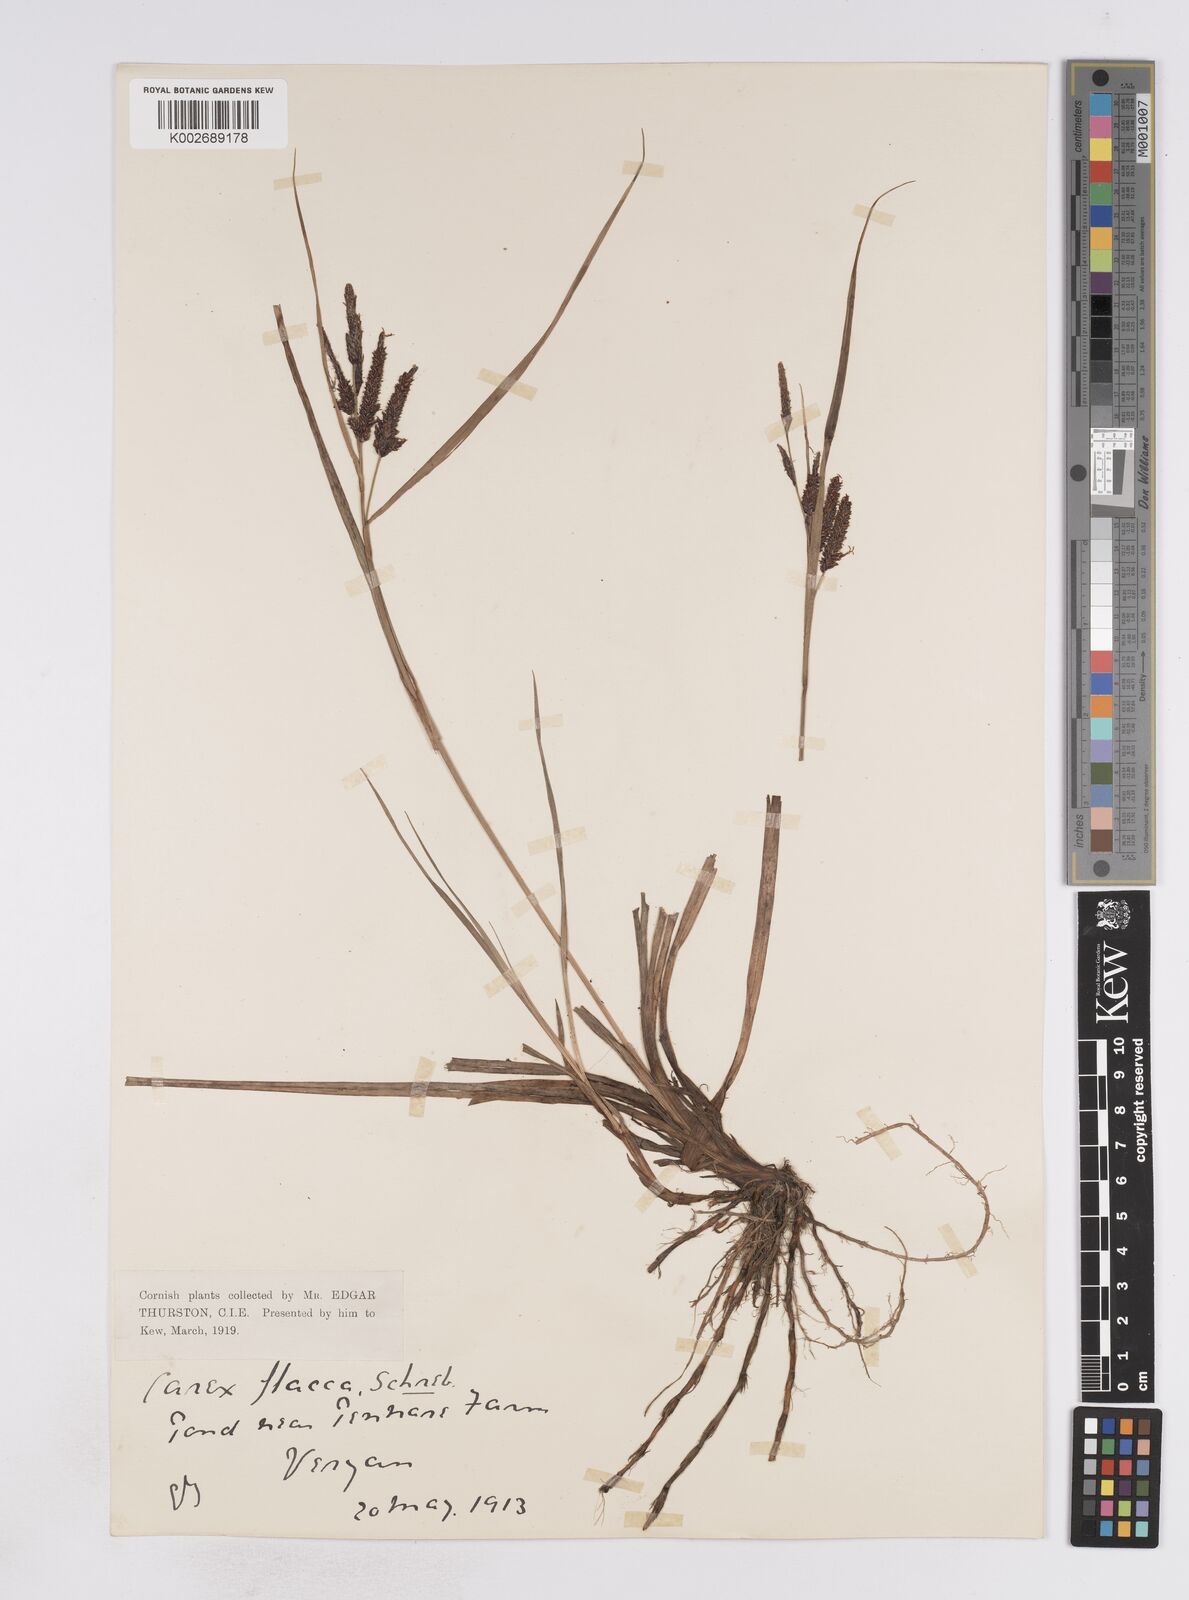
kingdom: Plantae
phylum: Tracheophyta
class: Liliopsida
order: Poales
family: Cyperaceae
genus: Carex
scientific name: Carex flacca
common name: Glaucous sedge
